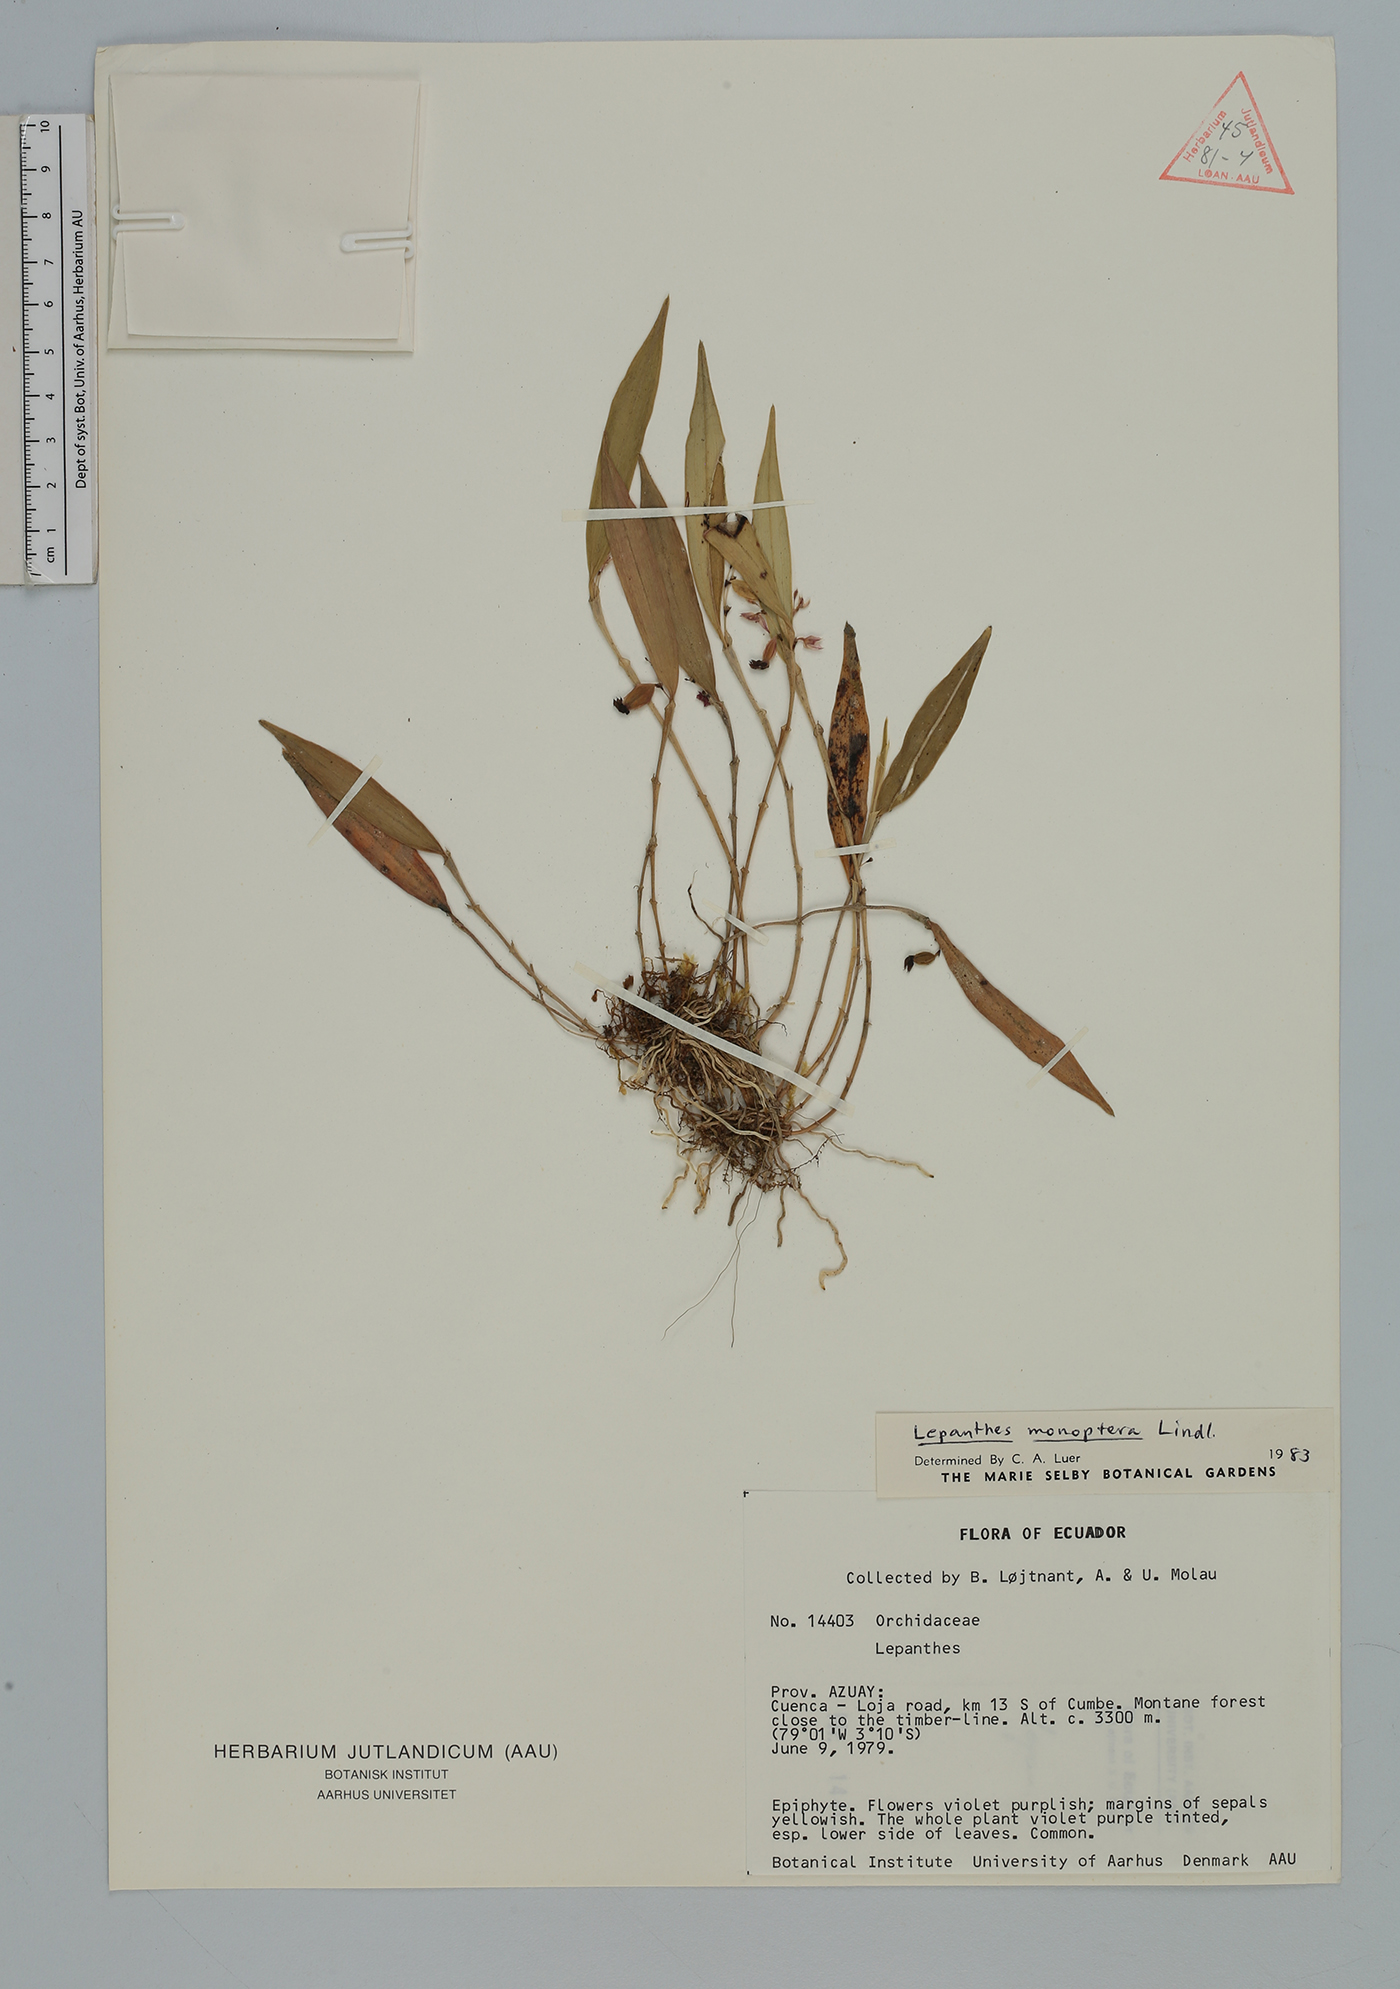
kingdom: Plantae
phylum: Tracheophyta
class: Liliopsida
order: Asparagales
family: Orchidaceae
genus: Lepanthes
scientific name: Lepanthes
